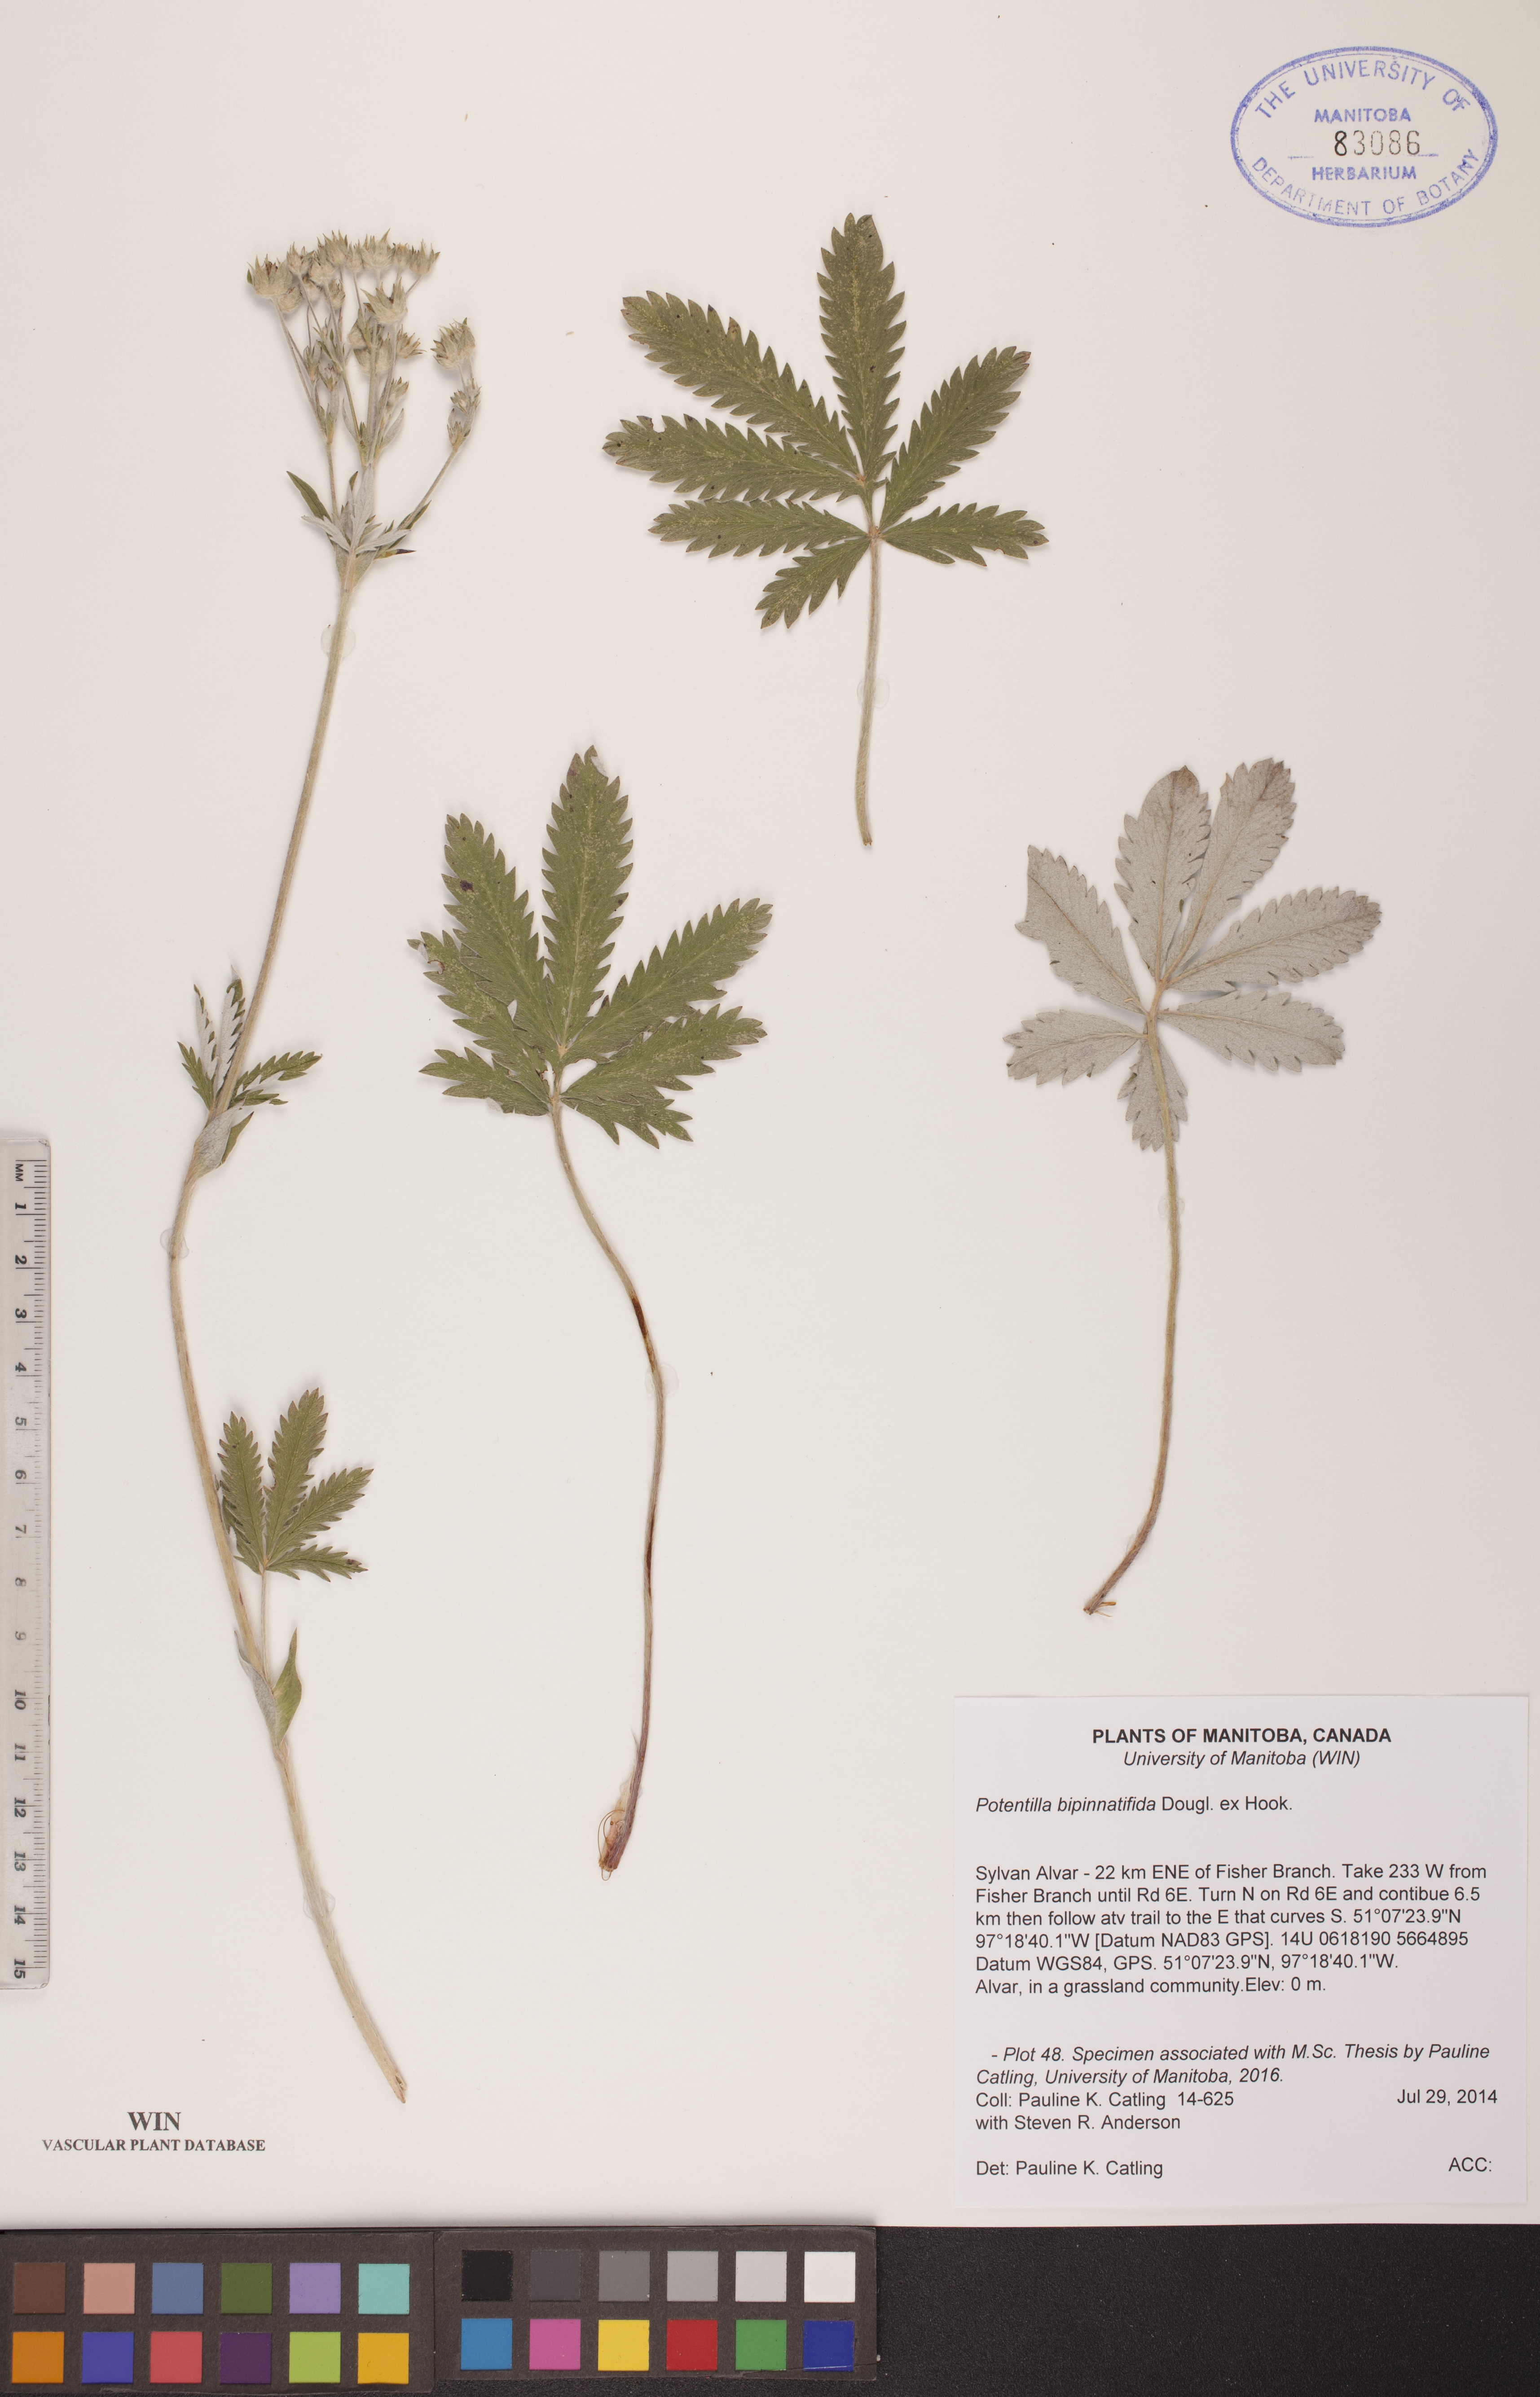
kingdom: Plantae
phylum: Tracheophyta
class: Magnoliopsida
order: Rosales
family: Rosaceae
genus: Potentilla
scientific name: Potentilla bipinnatifida
